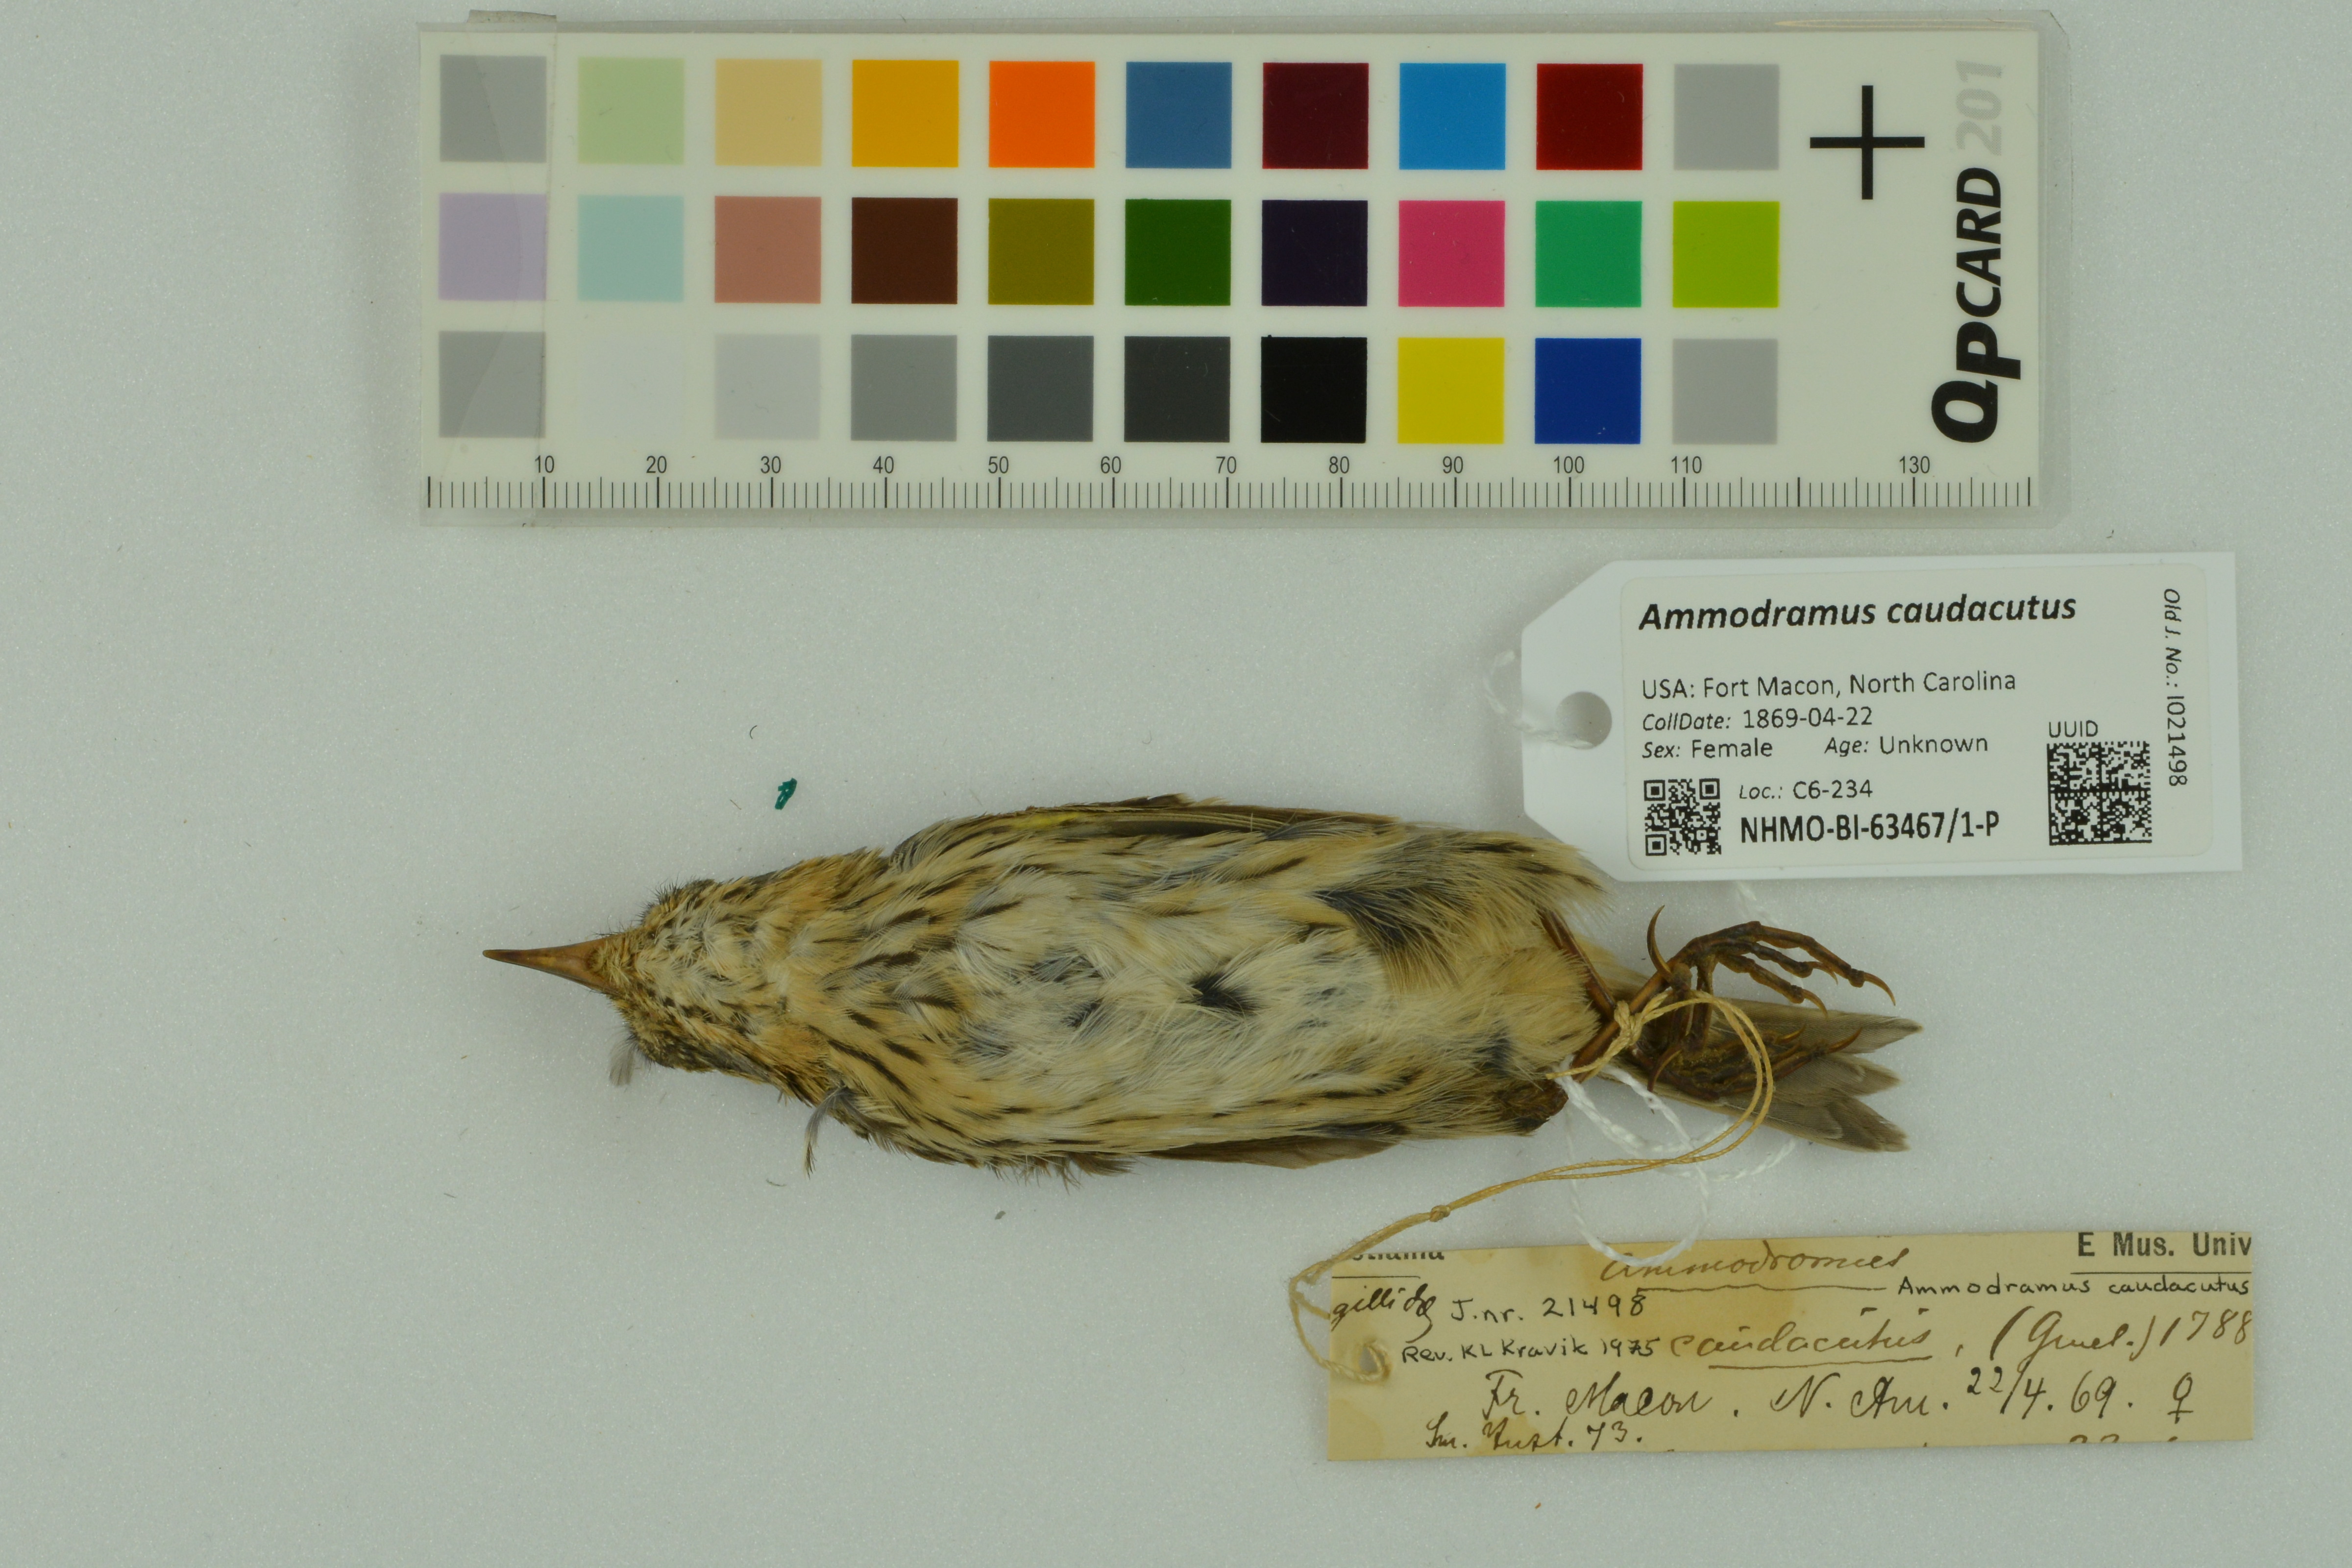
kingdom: Animalia
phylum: Chordata
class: Aves
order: Passeriformes
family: Passerellidae
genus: Ammospiza
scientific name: Ammospiza caudacuta
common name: Saltmarsh sparrow
